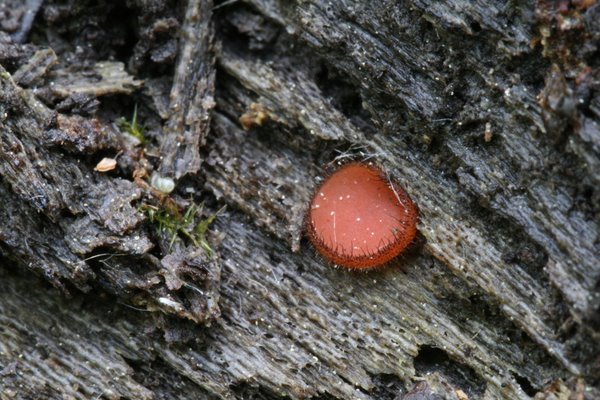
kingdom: Fungi
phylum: Ascomycota
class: Pezizomycetes
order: Pezizales
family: Pyronemataceae
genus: Scutellinia
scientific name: Scutellinia scutellata
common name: frynset skjoldbæger
